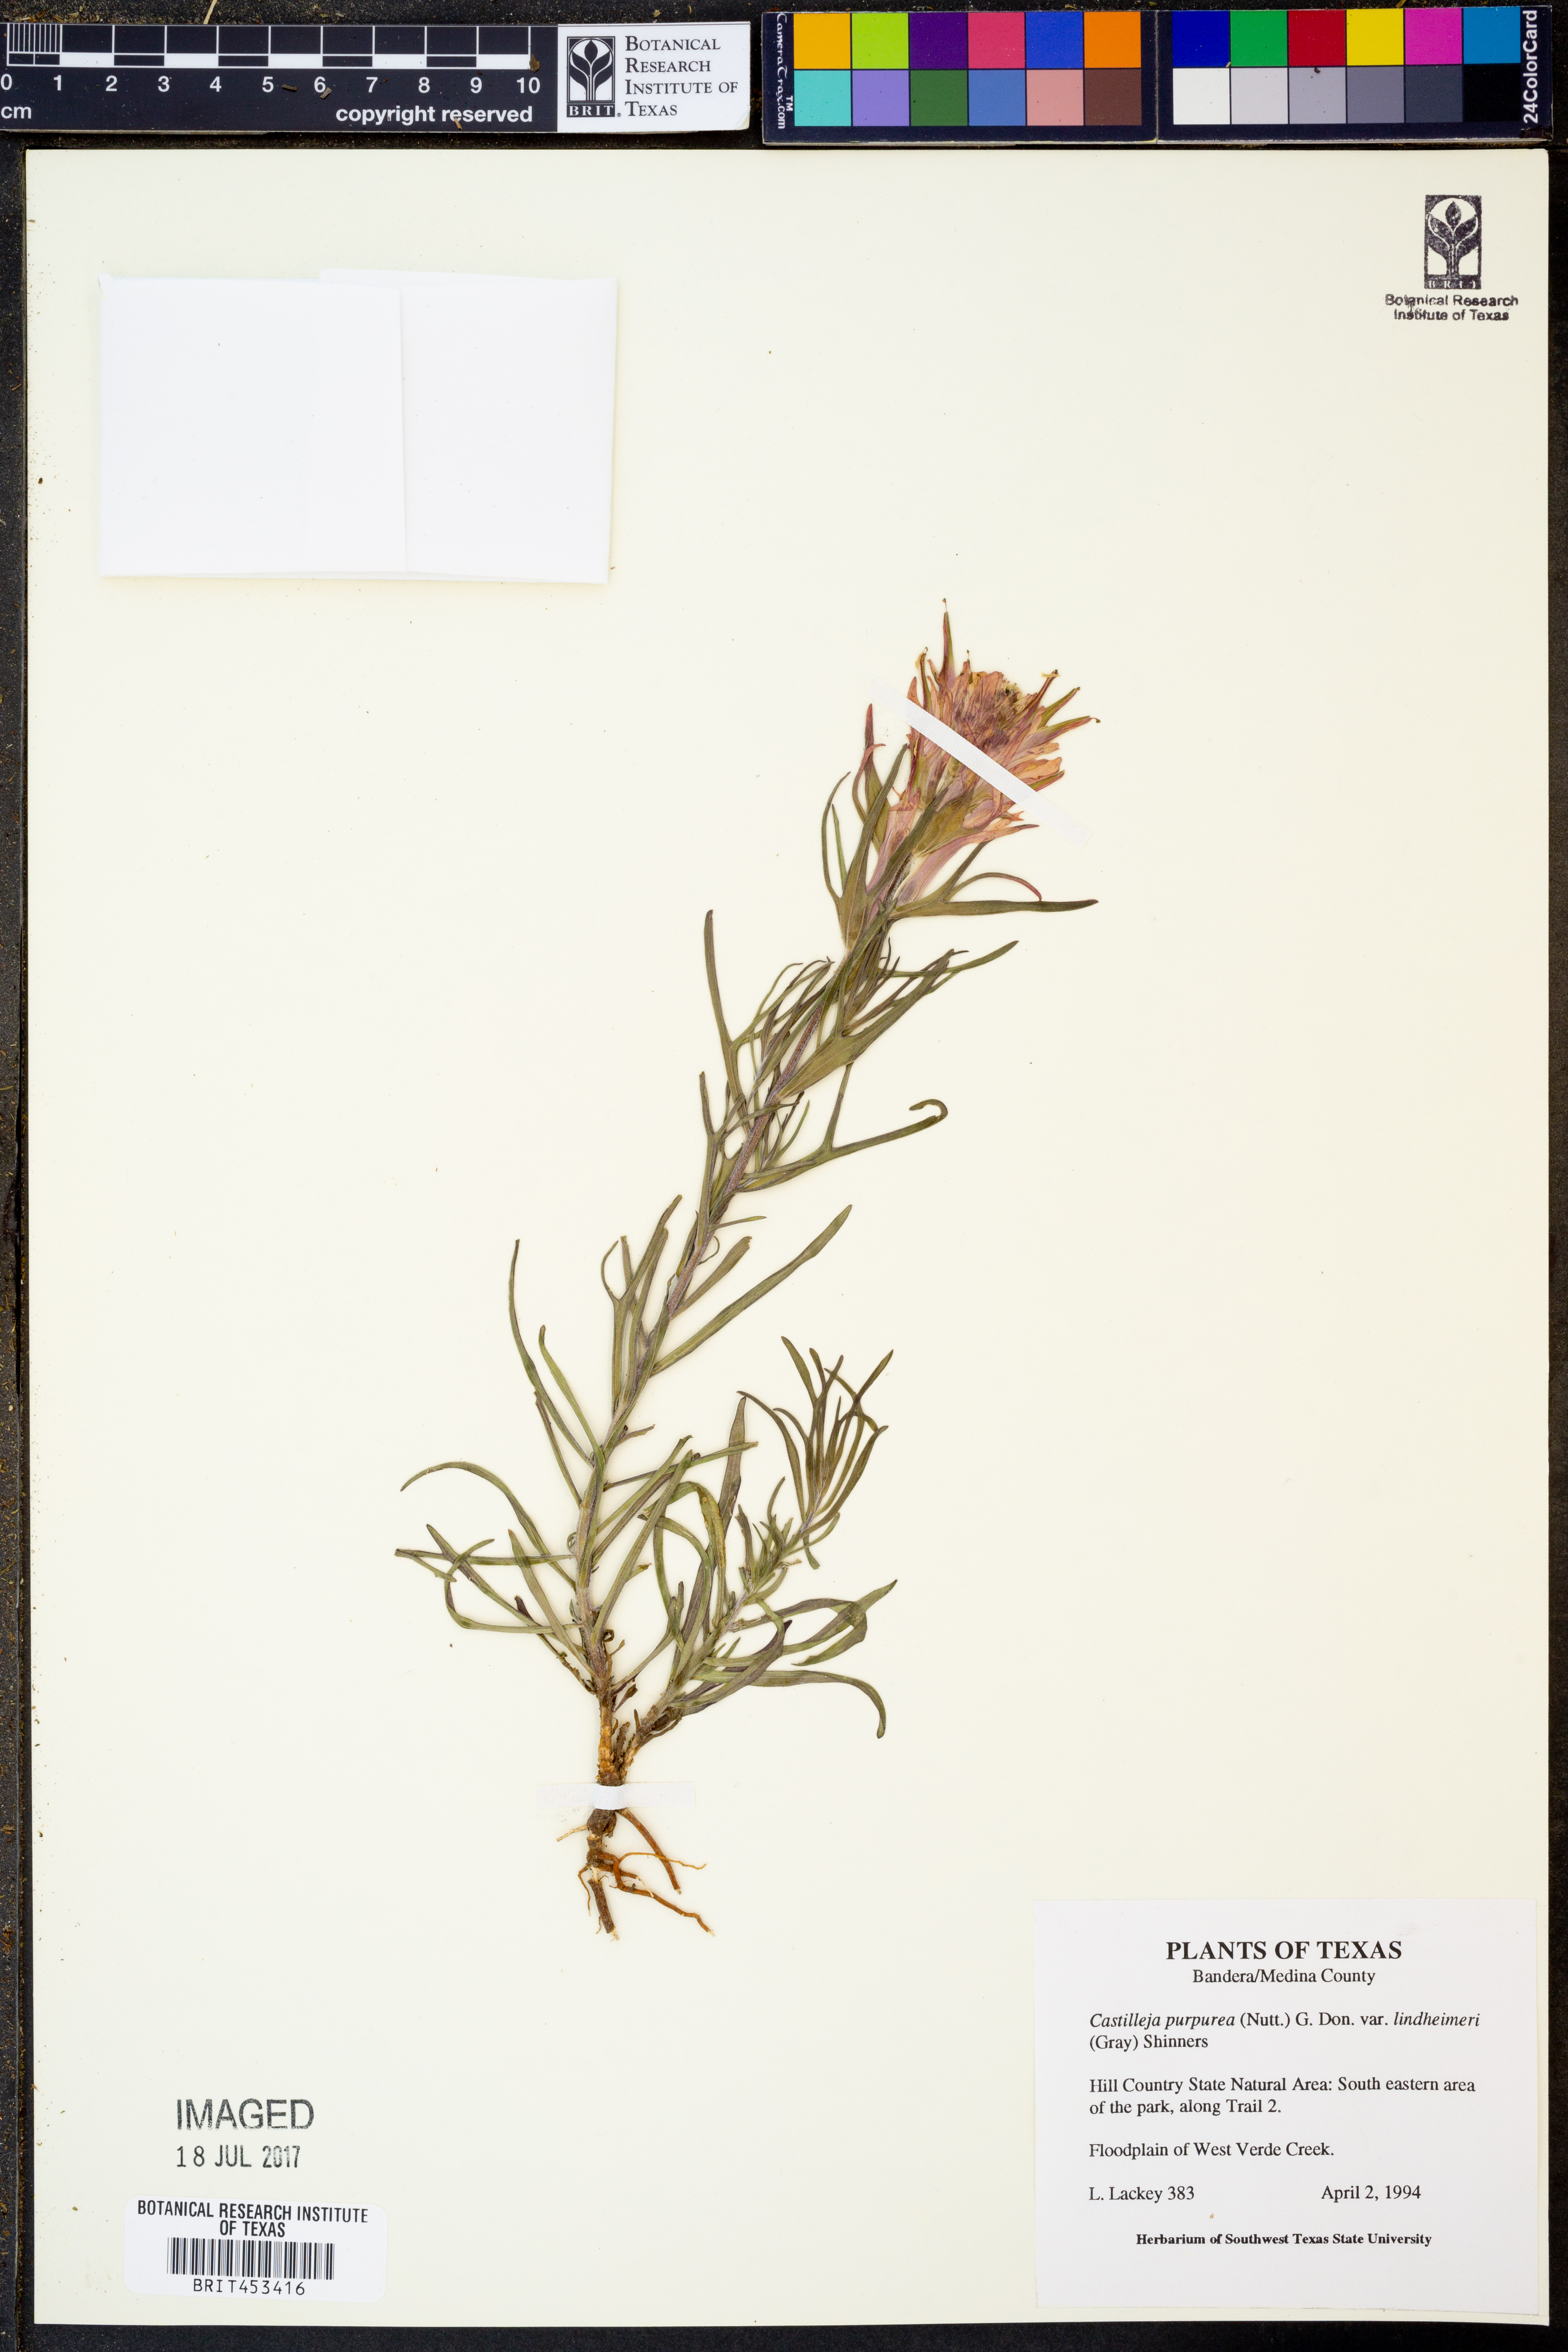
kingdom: Plantae
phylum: Tracheophyta
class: Magnoliopsida
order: Lamiales
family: Orobanchaceae
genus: Castilleja
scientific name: Castilleja lindheimeri
